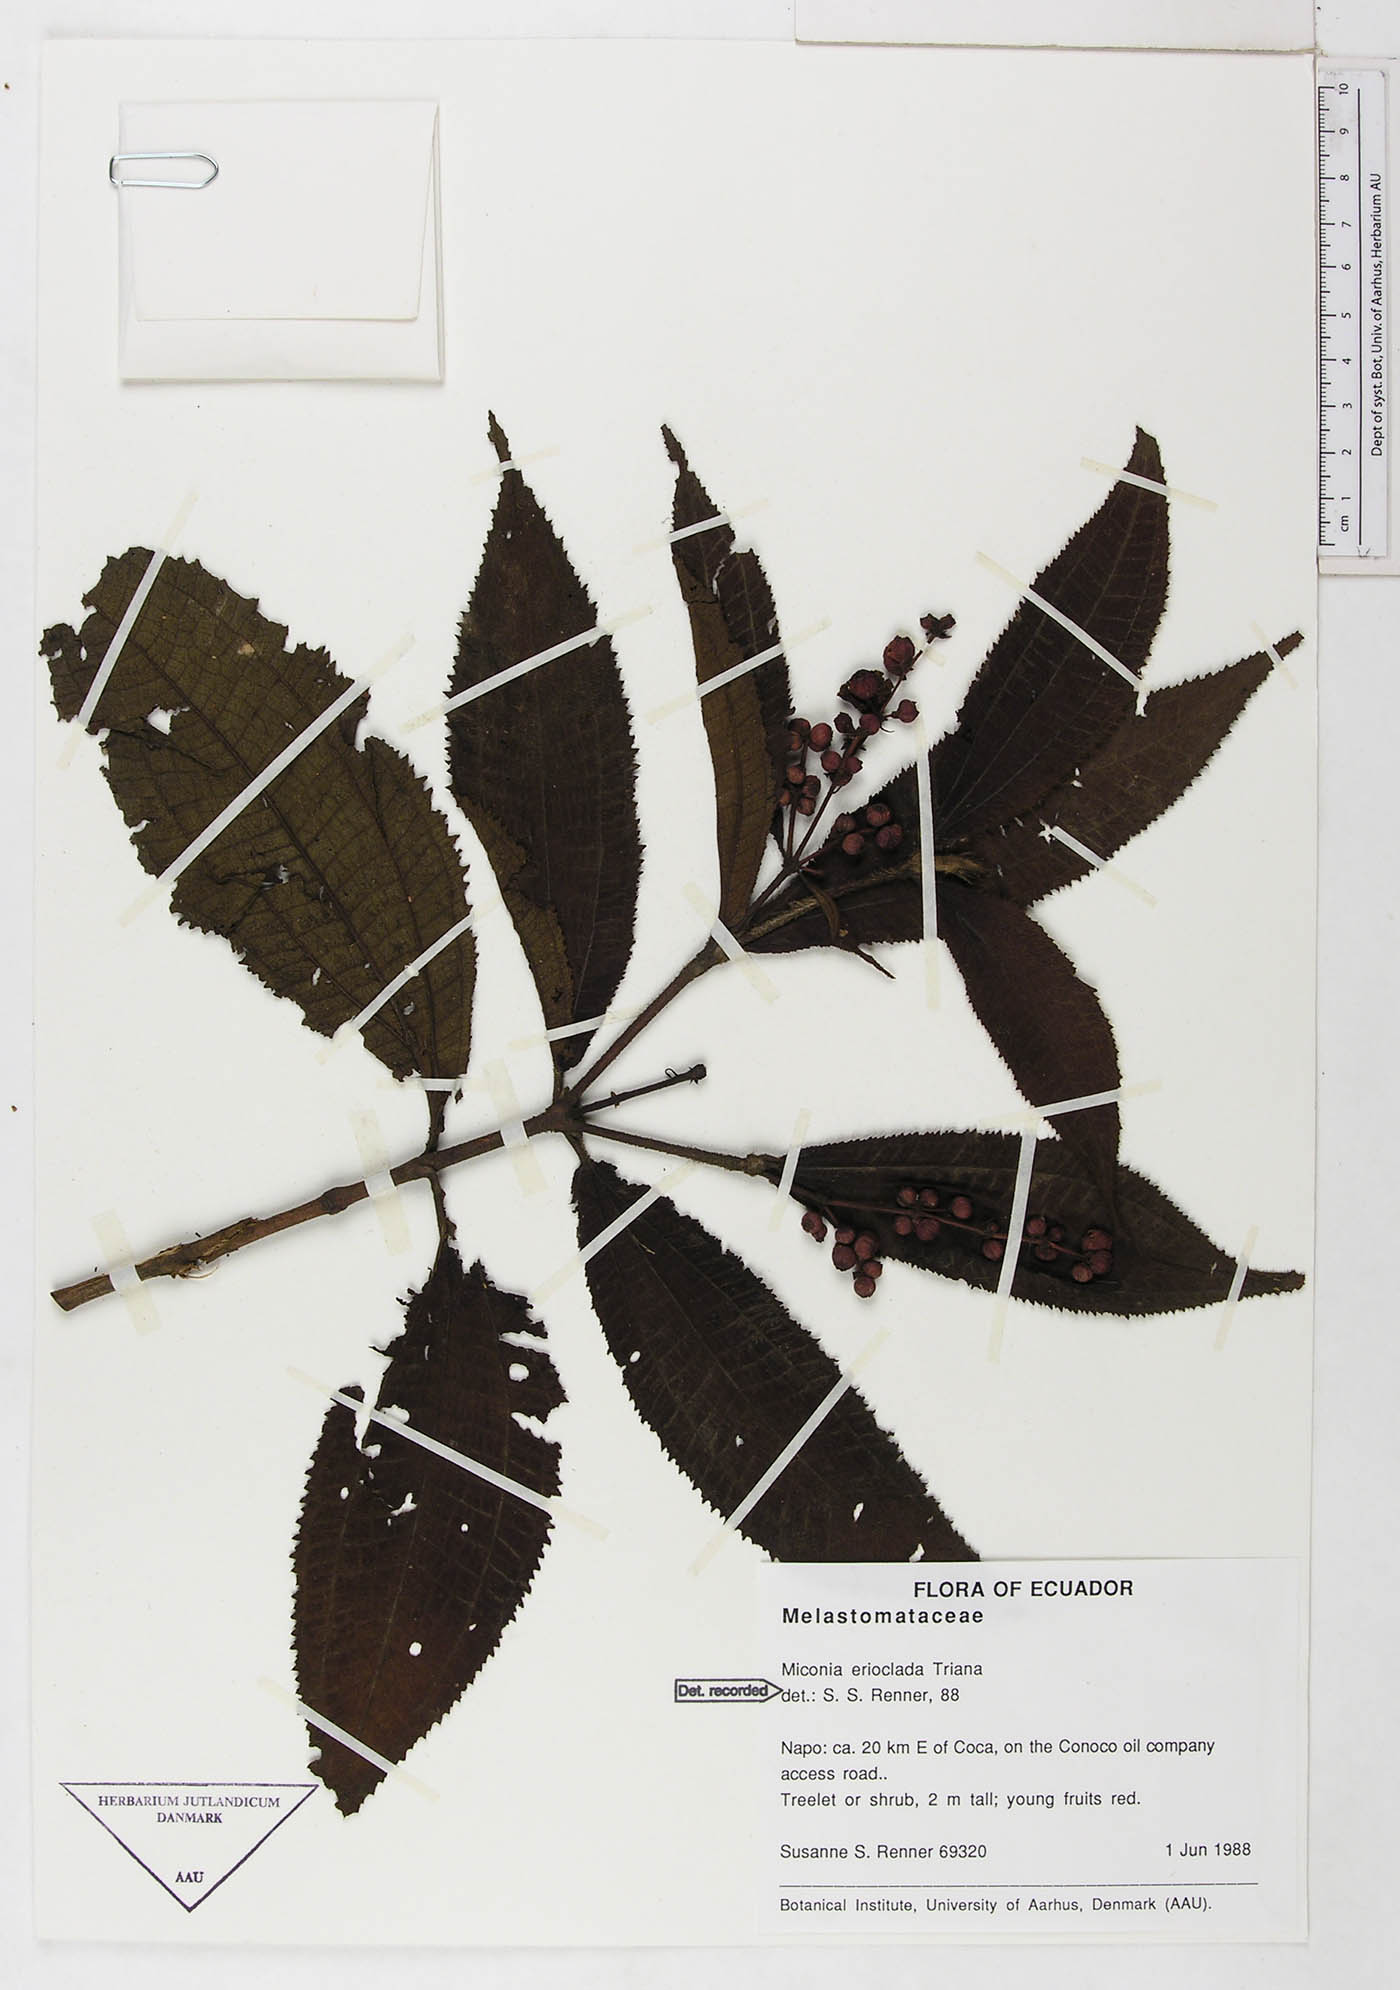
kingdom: Plantae
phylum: Tracheophyta
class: Magnoliopsida
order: Myrtales
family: Melastomataceae
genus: Miconia
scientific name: Miconia erioclada
